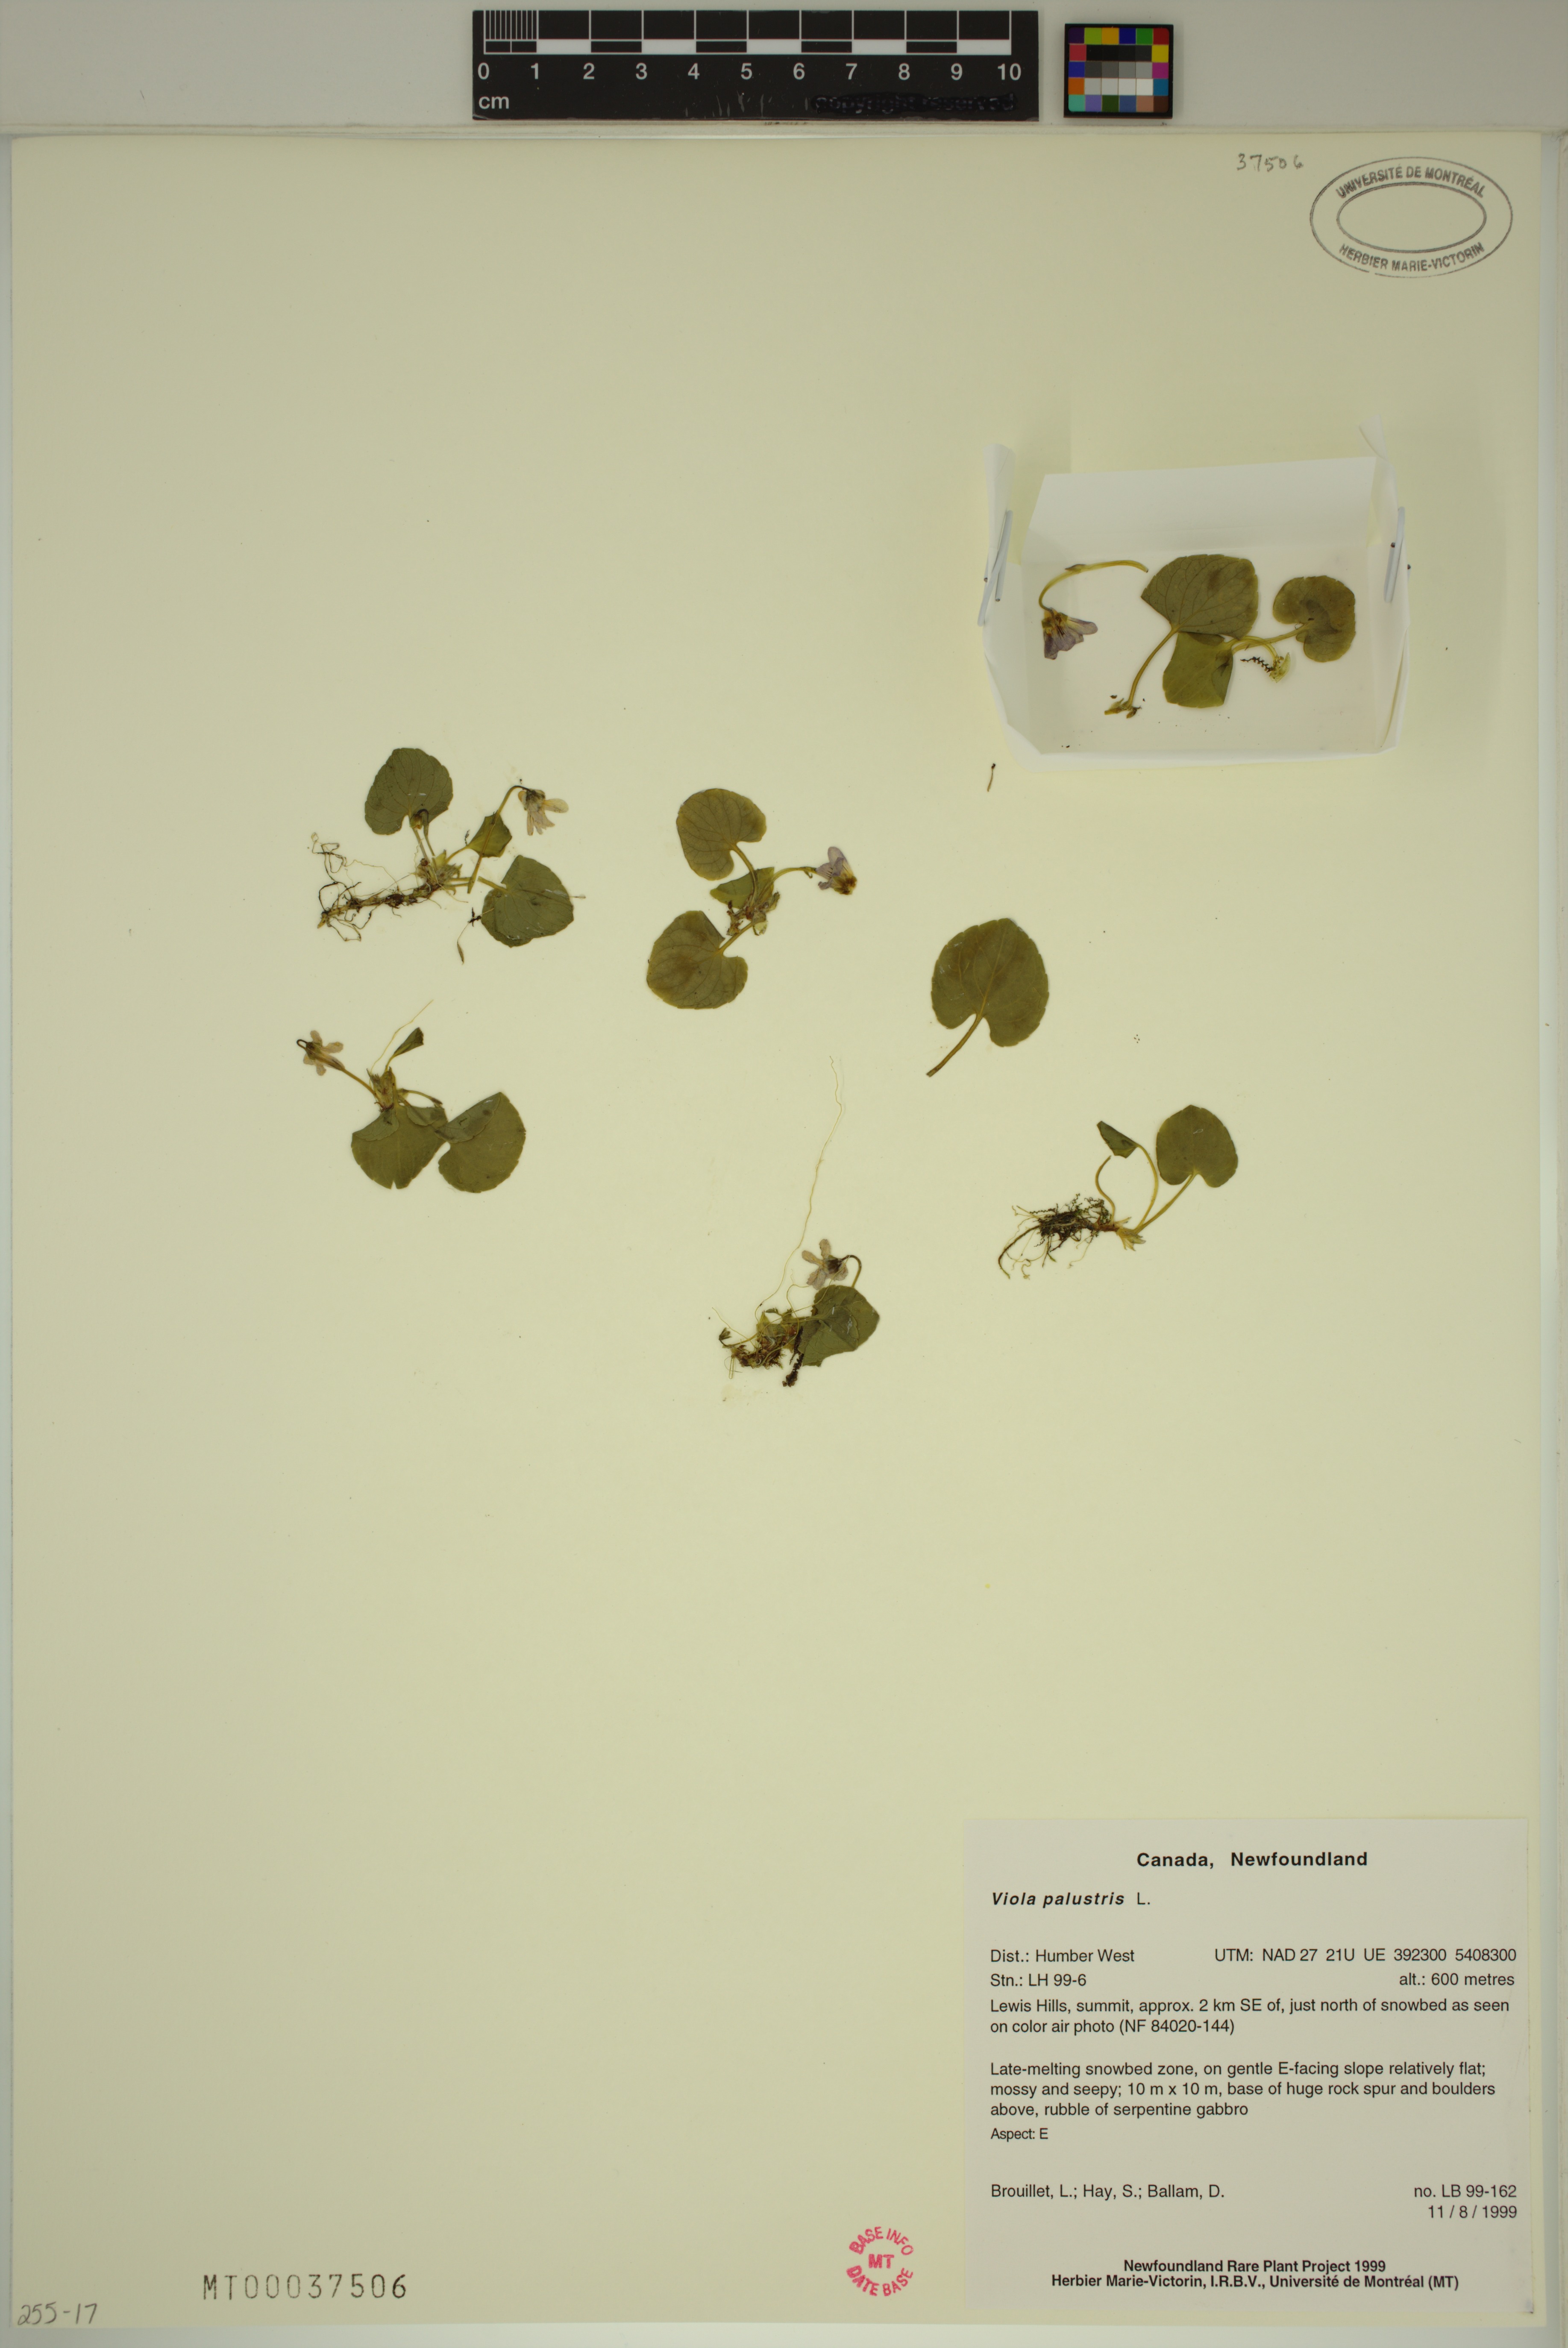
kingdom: Plantae
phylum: Tracheophyta
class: Magnoliopsida
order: Malpighiales
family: Violaceae
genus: Viola
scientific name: Viola palustris
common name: Marsh violet
